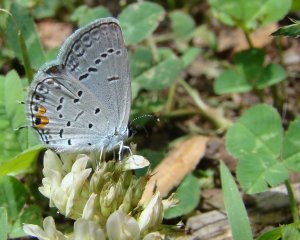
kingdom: Animalia
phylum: Arthropoda
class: Insecta
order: Lepidoptera
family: Lycaenidae
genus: Elkalyce
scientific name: Elkalyce comyntas
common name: Eastern Tailed-Blue
